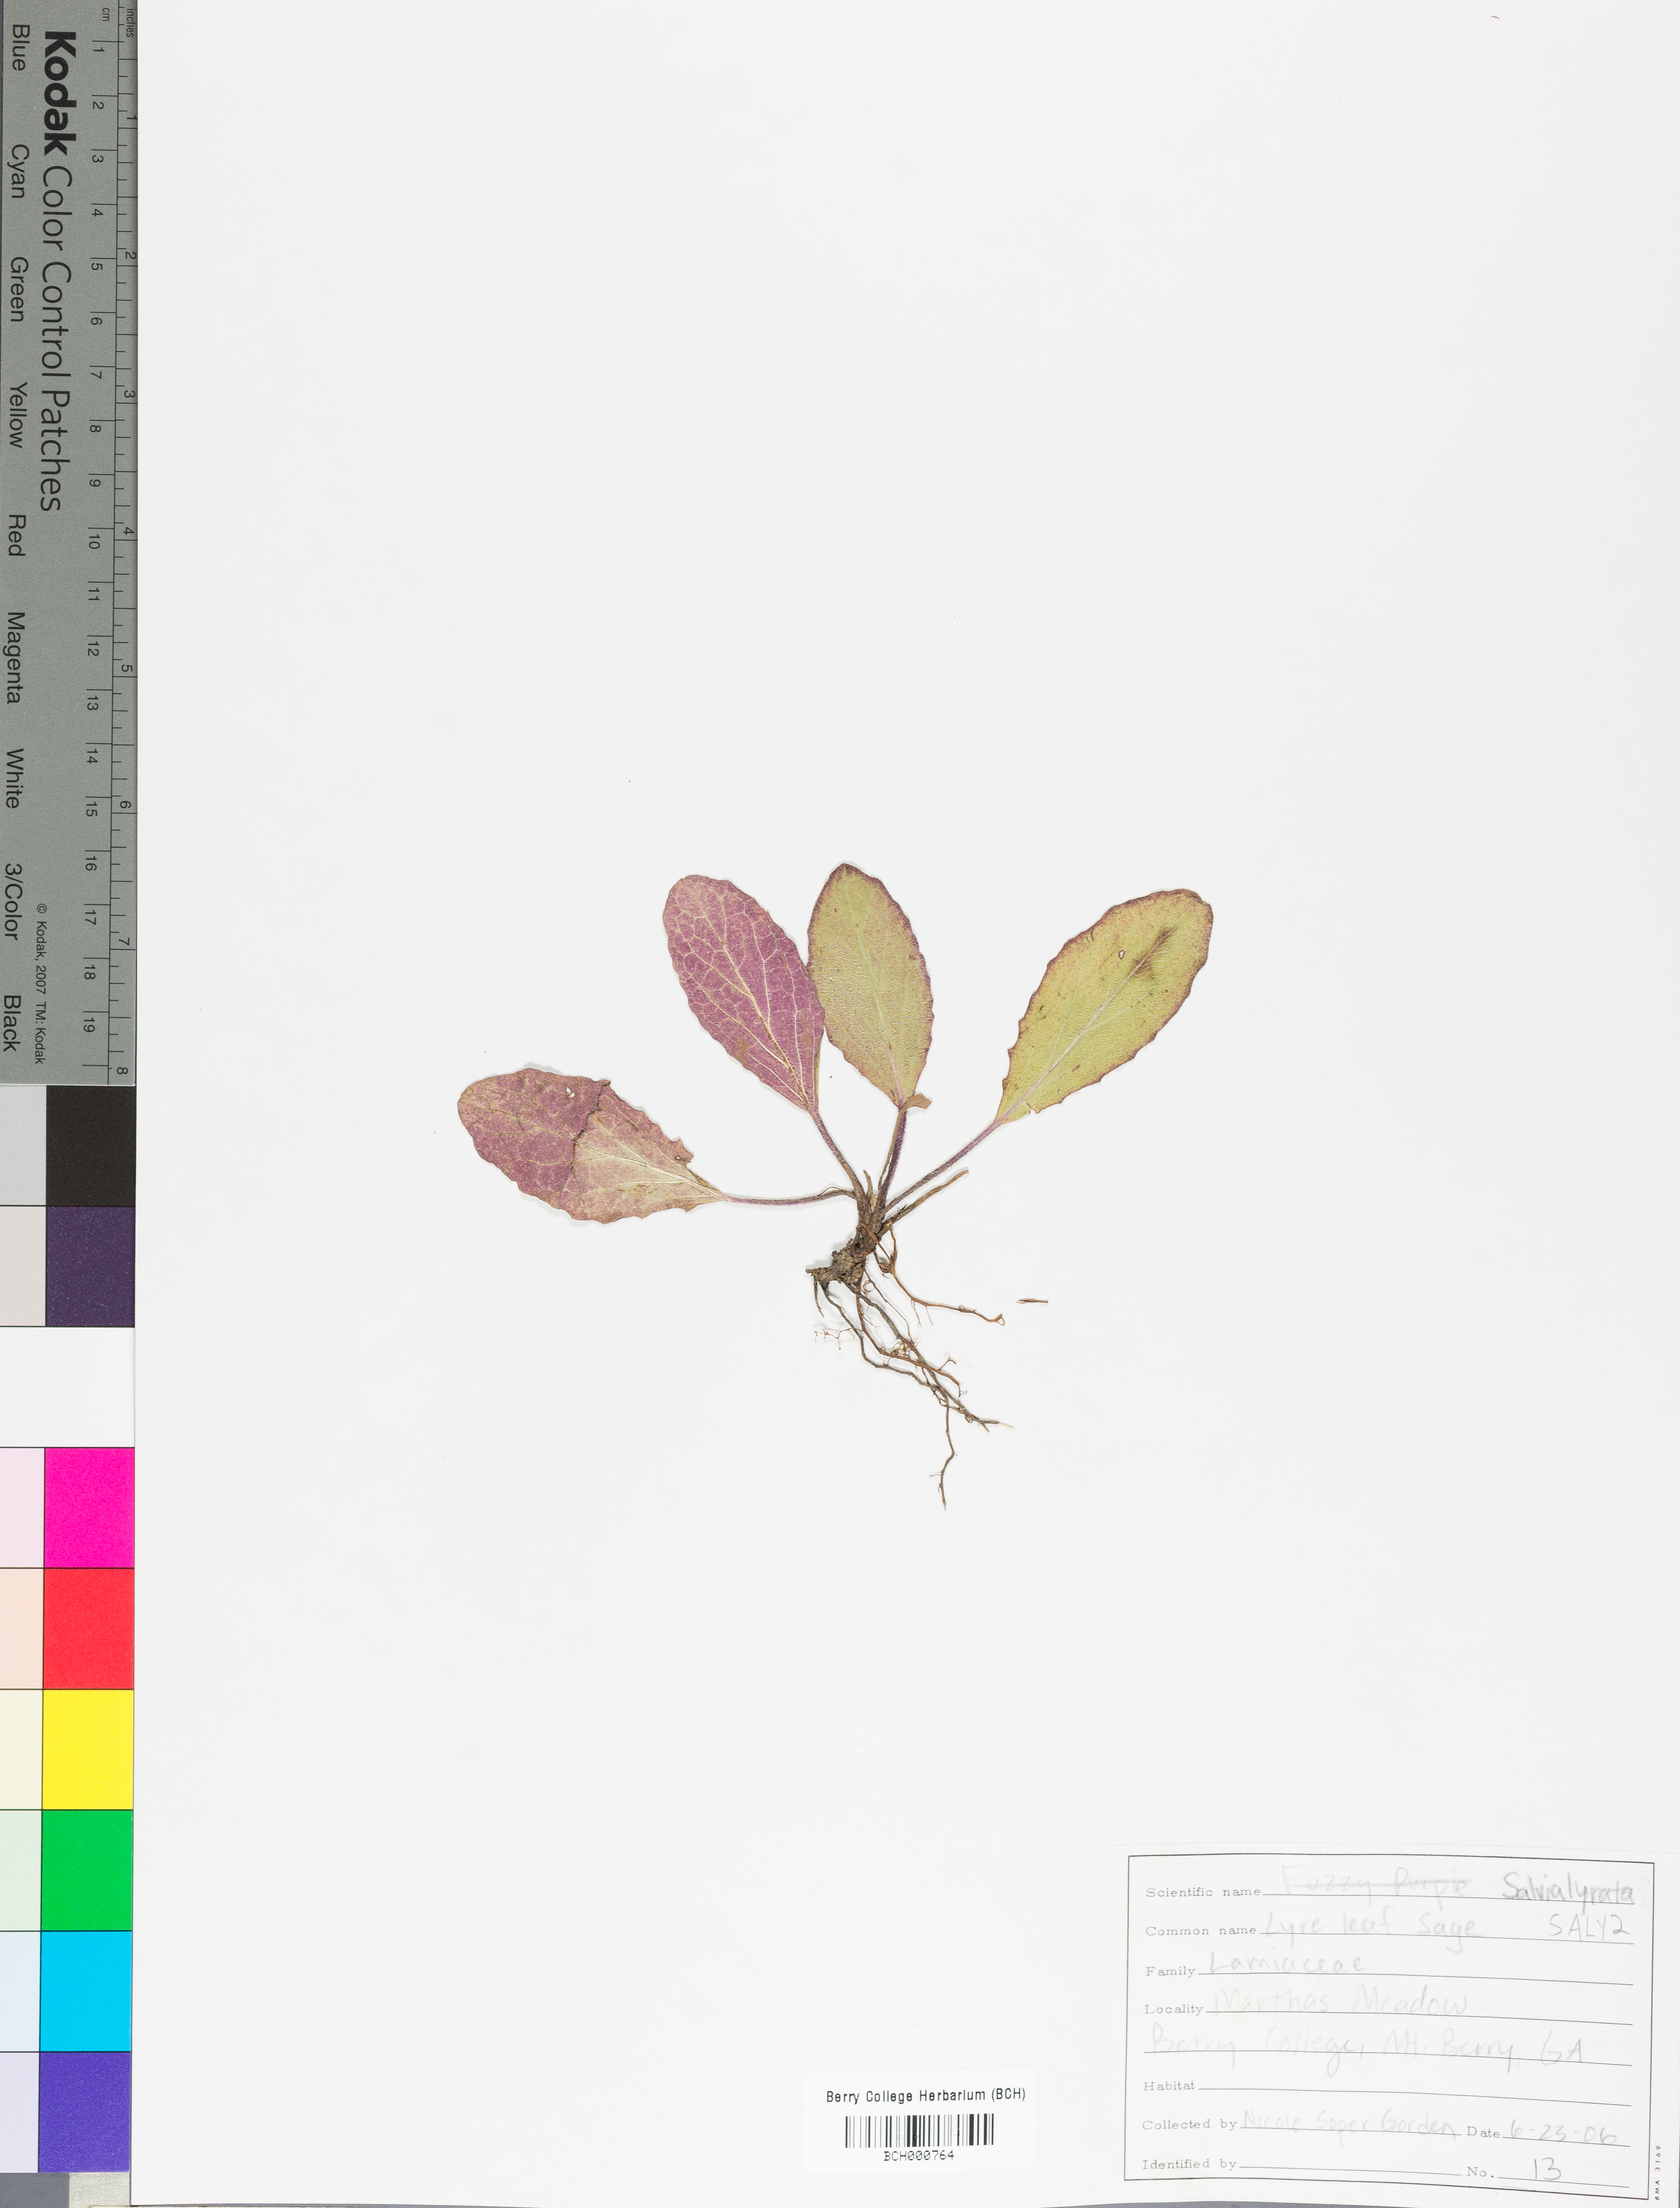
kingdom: Plantae
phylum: Tracheophyta
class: Magnoliopsida
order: Lamiales
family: Lamiaceae
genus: Salvia
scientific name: Salvia lyrata
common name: Cancerweed
